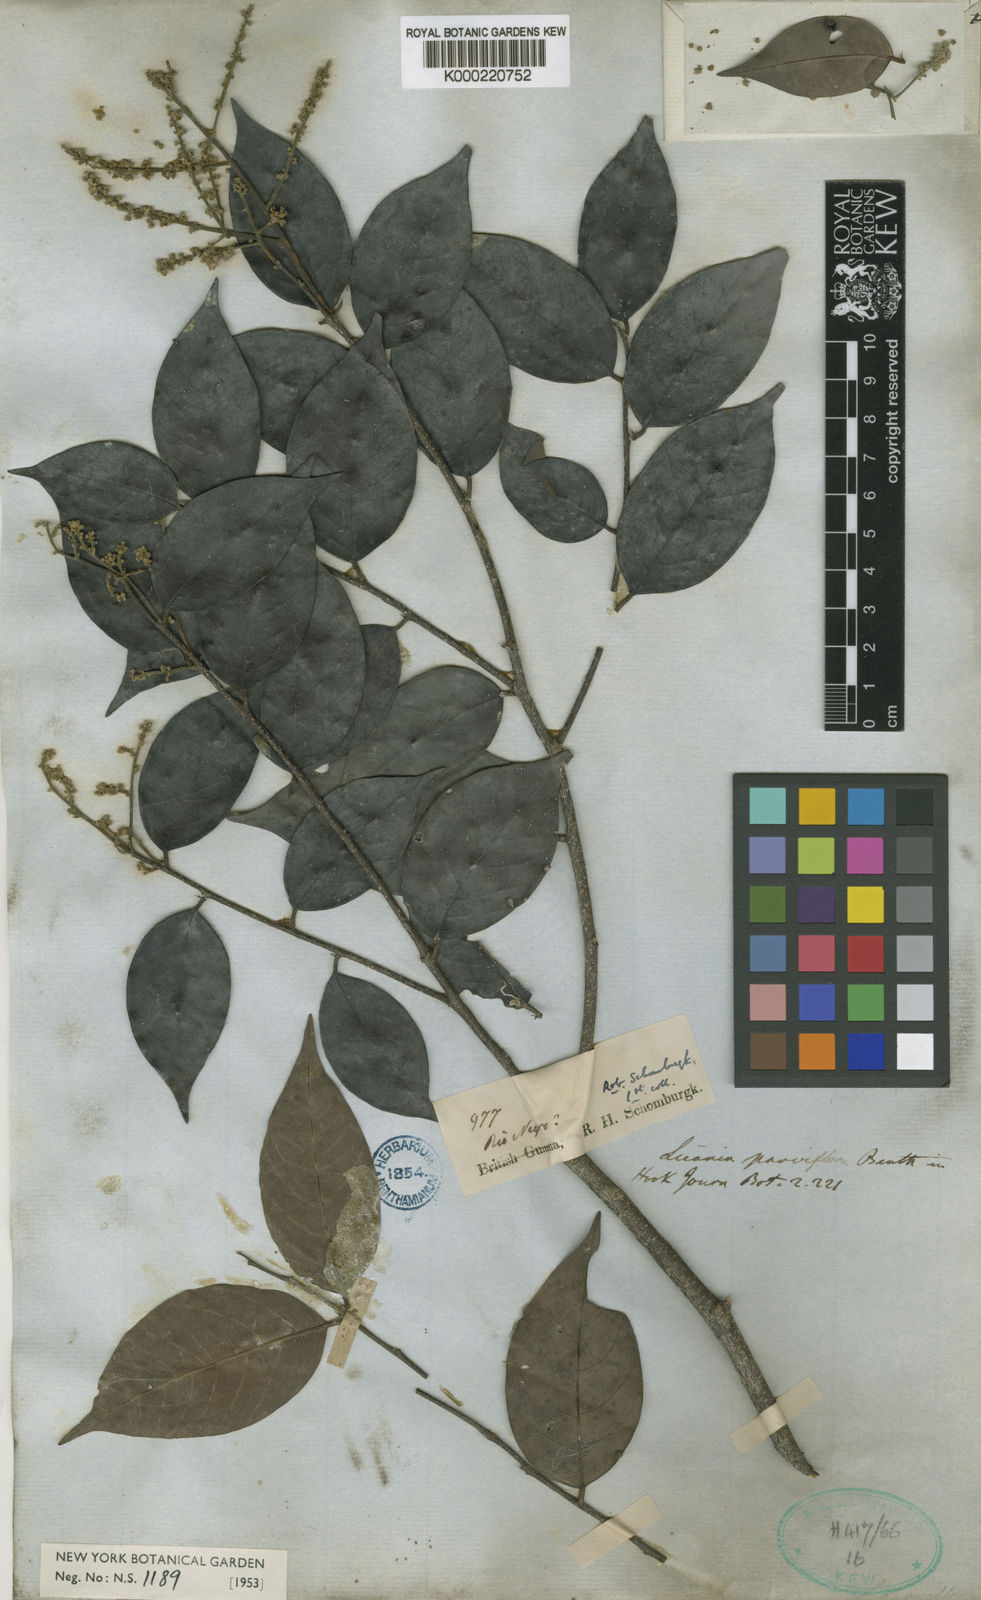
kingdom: Plantae
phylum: Tracheophyta
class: Magnoliopsida
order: Malpighiales
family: Chrysobalanaceae
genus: Leptobalanus
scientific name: Leptobalanus parviflorus
